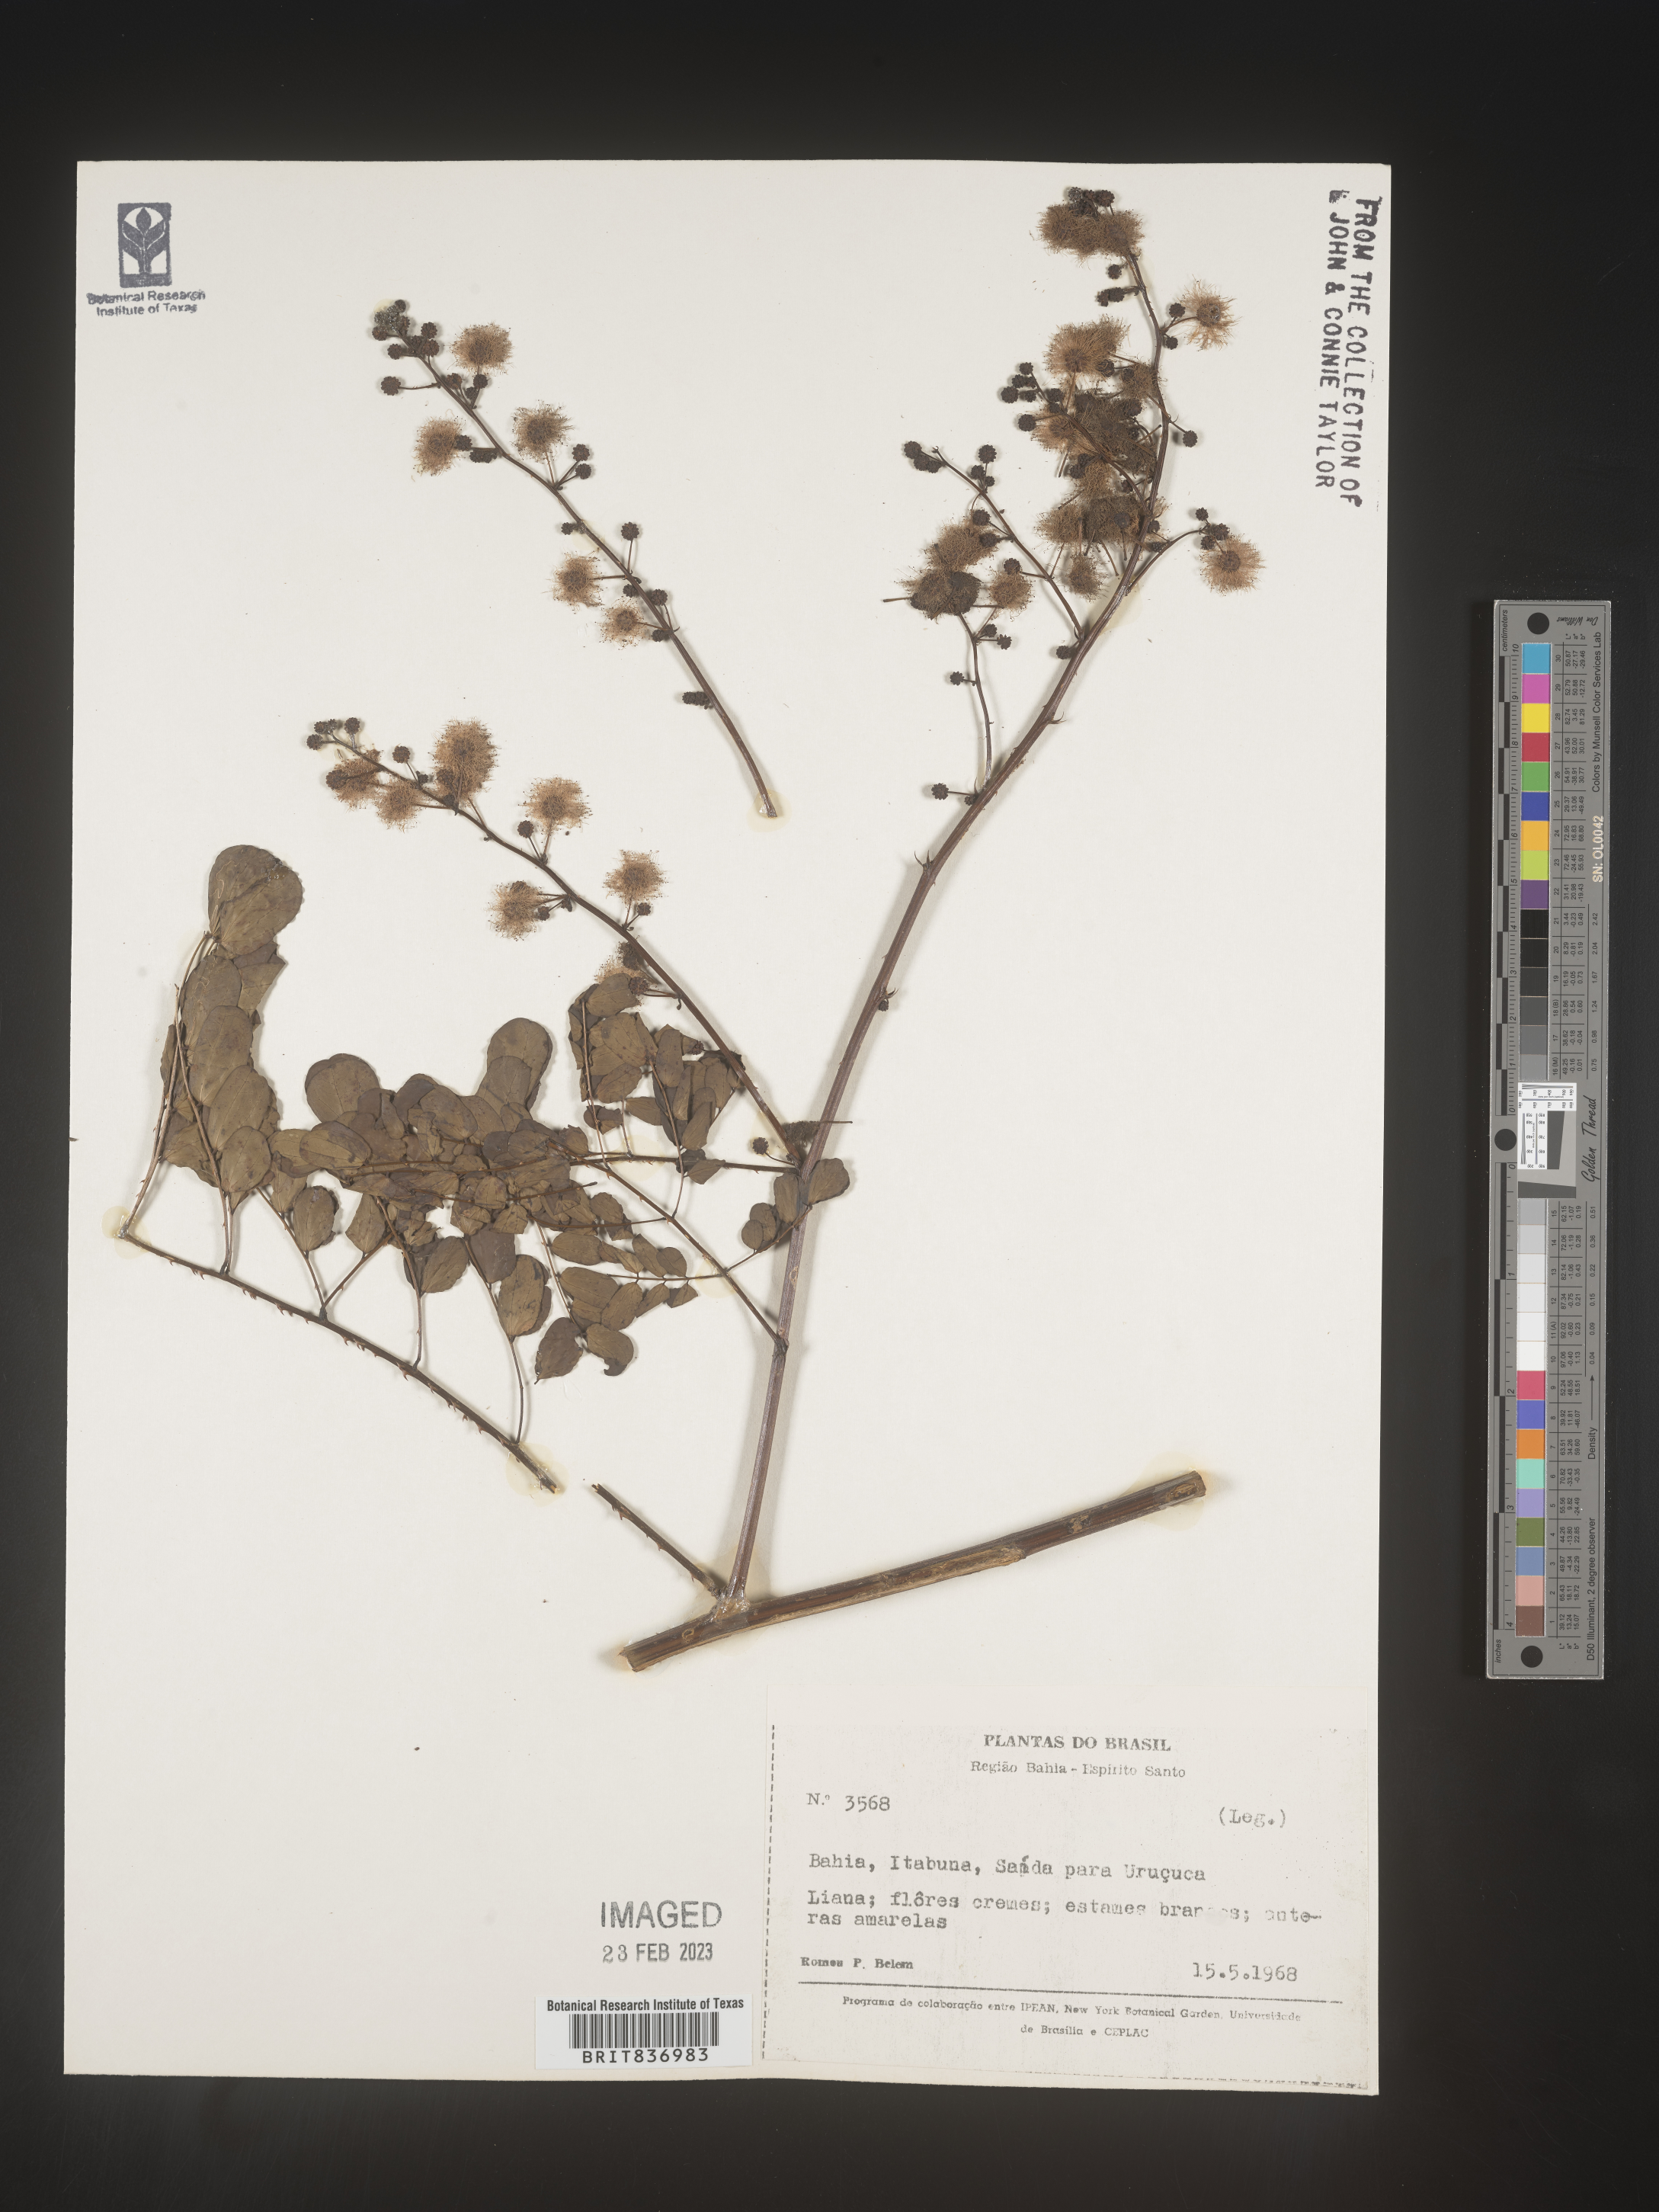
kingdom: Plantae
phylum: Tracheophyta
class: Magnoliopsida
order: Fabales
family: Fabaceae
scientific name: Fabaceae
